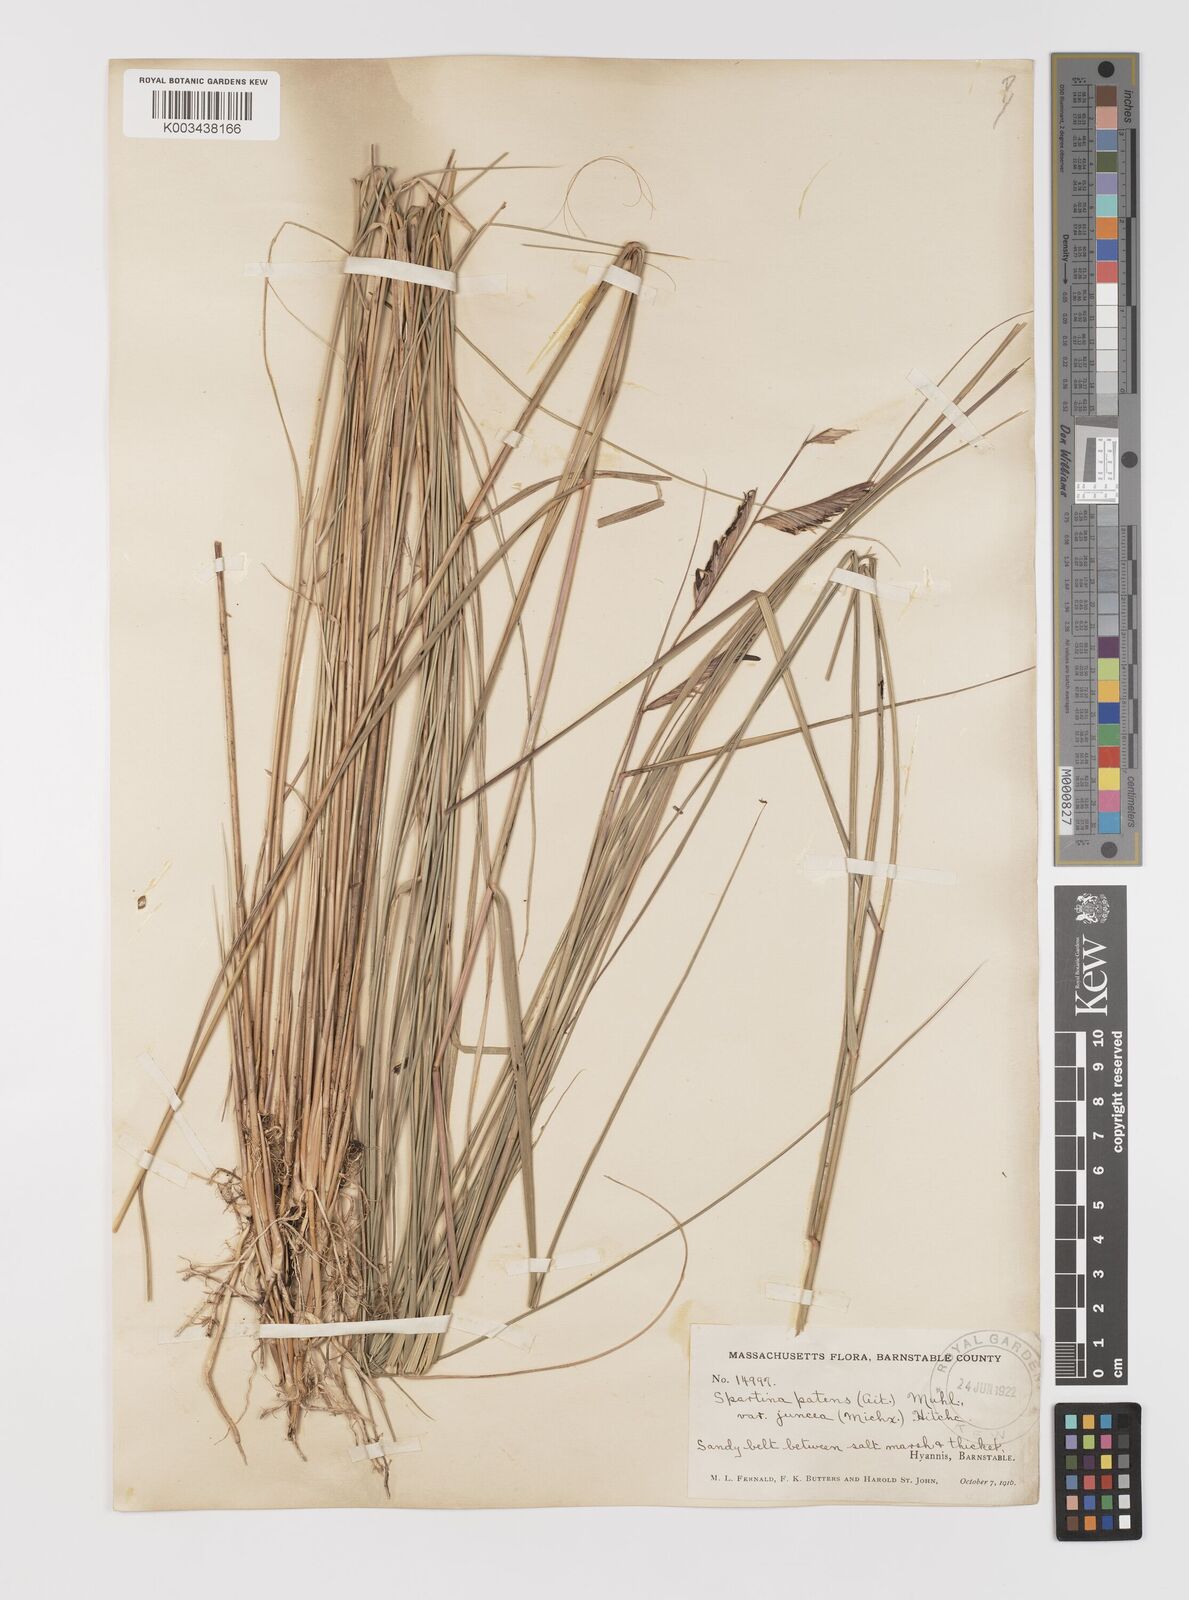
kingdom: Plantae
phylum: Tracheophyta
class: Liliopsida
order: Poales
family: Poaceae
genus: Sporobolus
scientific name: Sporobolus pumilus
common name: Highwater grass
